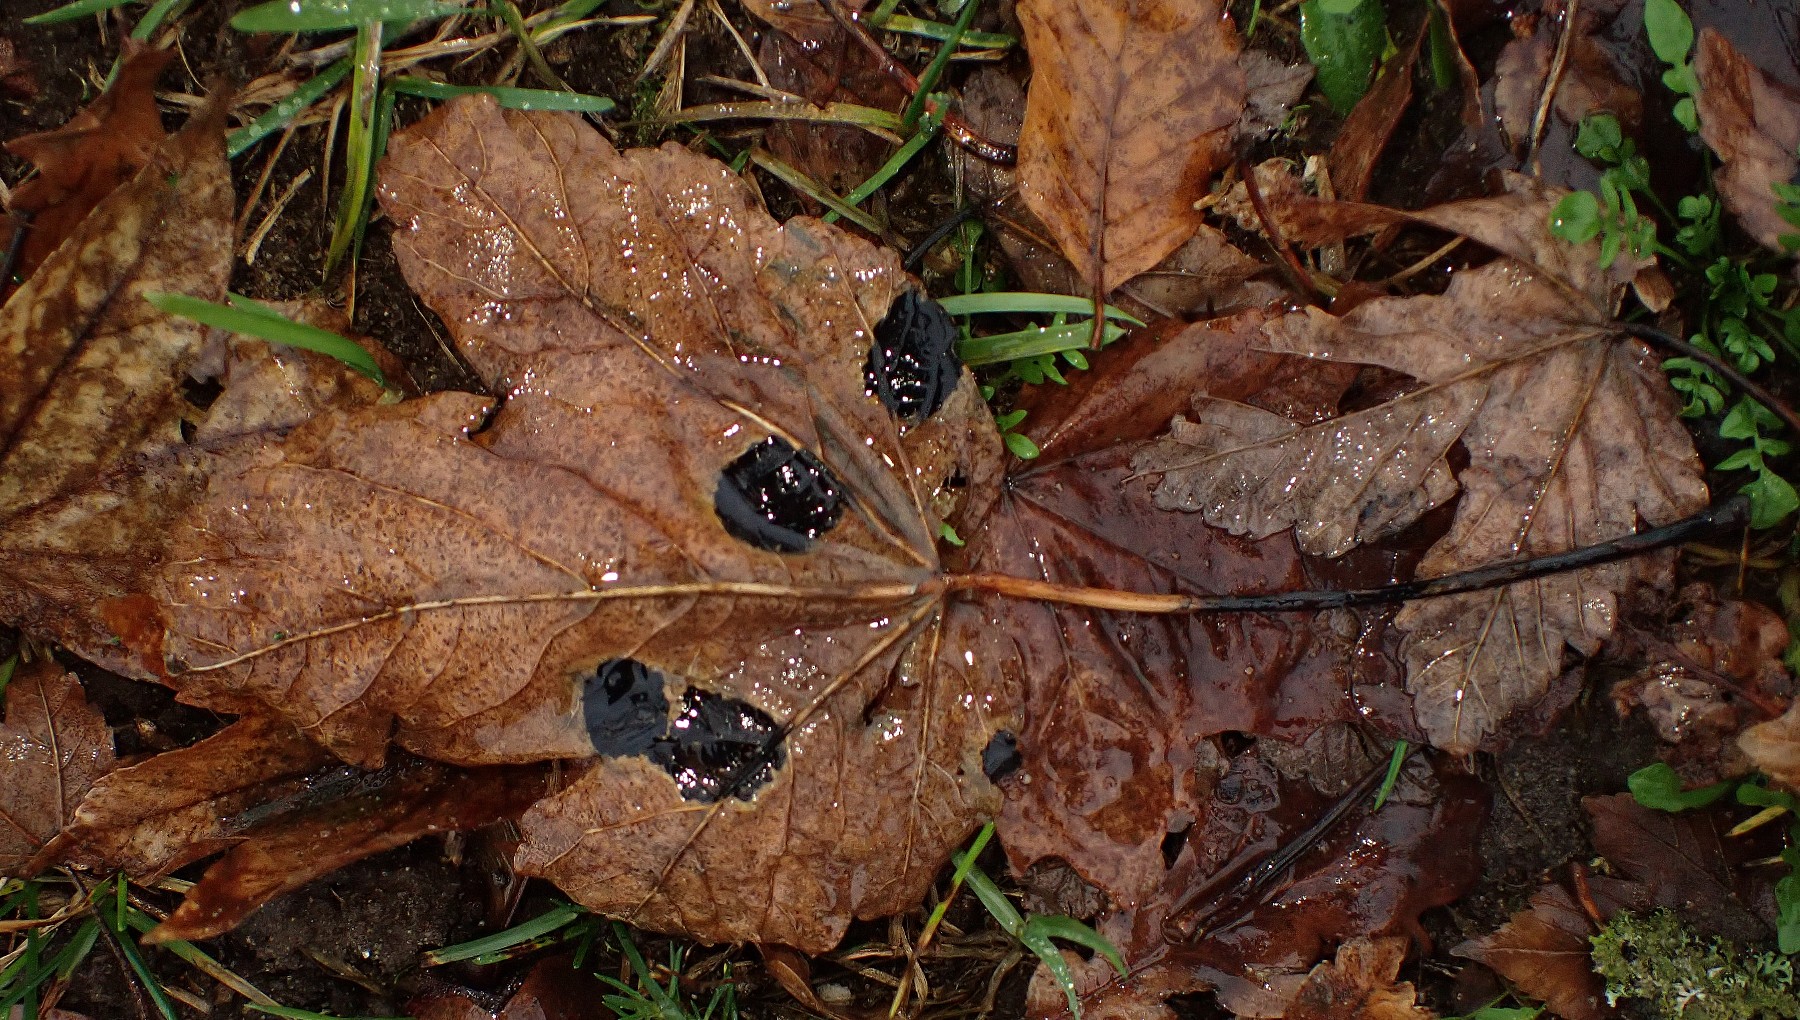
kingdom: Fungi
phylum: Ascomycota
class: Leotiomycetes
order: Rhytismatales
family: Rhytismataceae
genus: Rhytisma
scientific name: Rhytisma acerinum
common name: ahorn-rynkeplet
